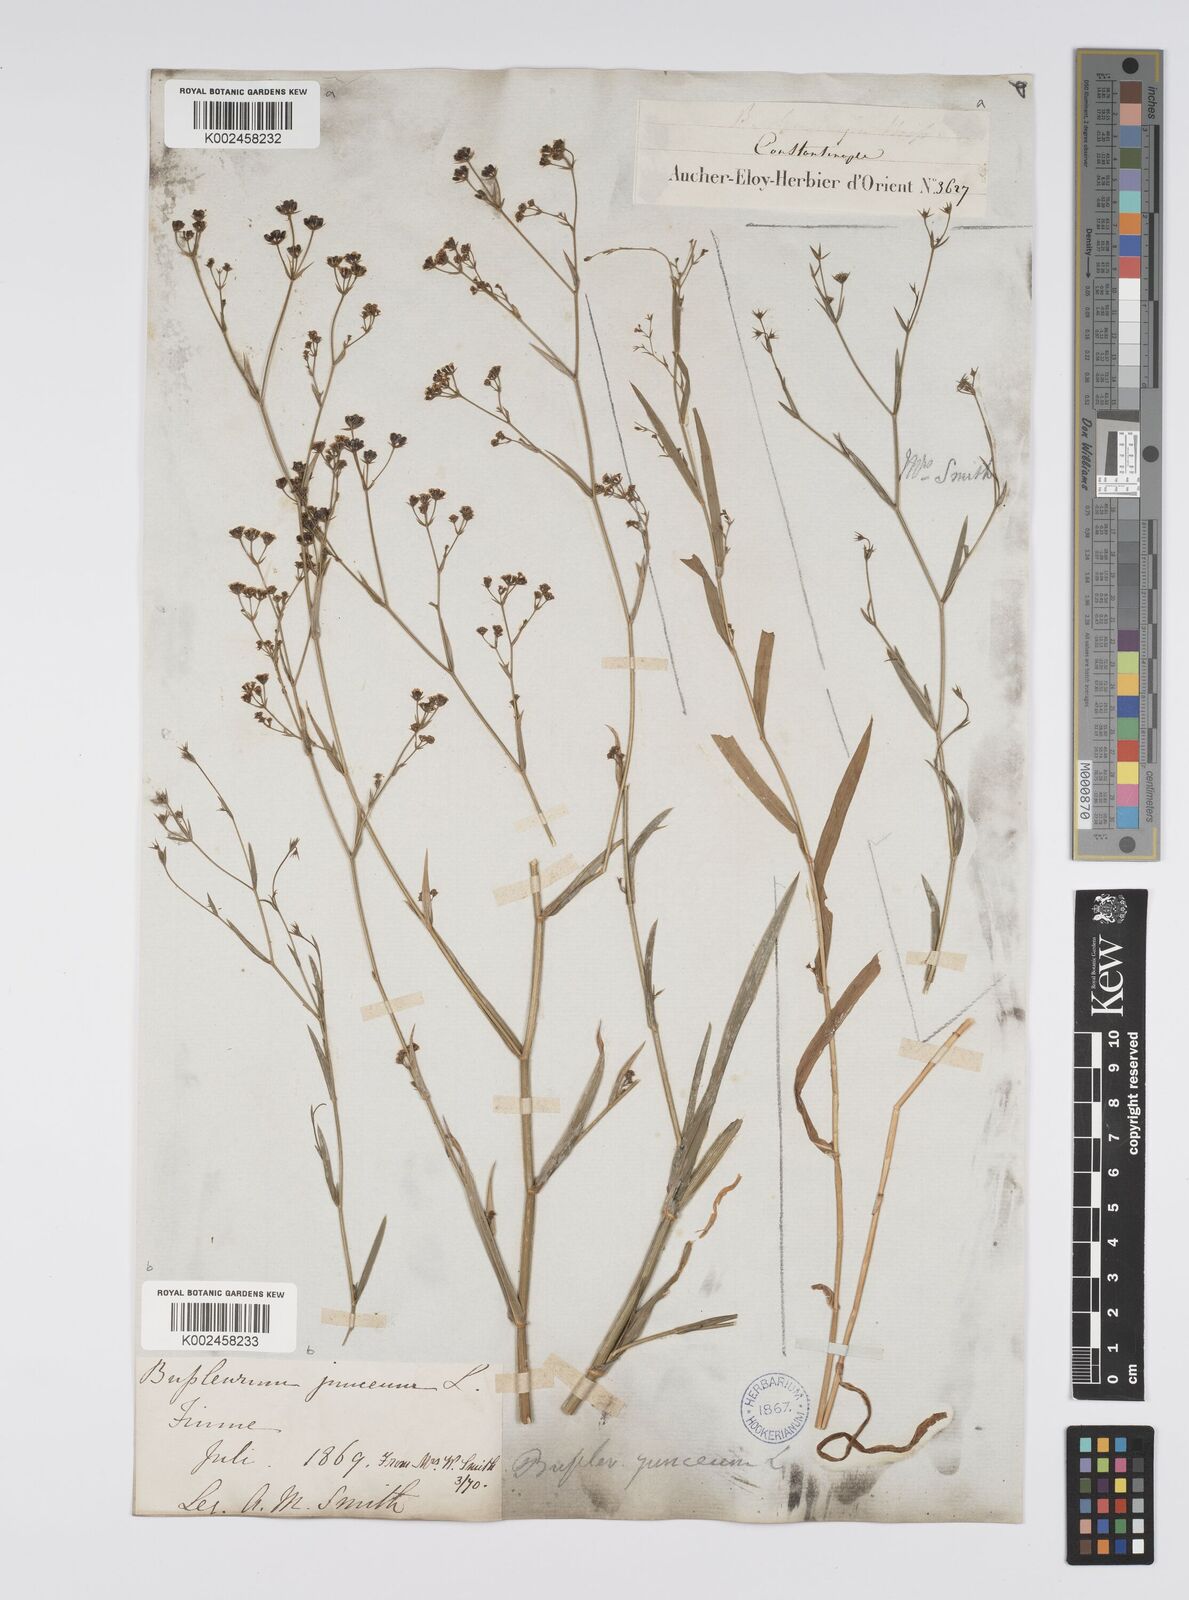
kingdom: Plantae
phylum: Tracheophyta
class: Magnoliopsida
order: Apiales
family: Apiaceae
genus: Bupleurum
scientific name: Bupleurum praealtum
